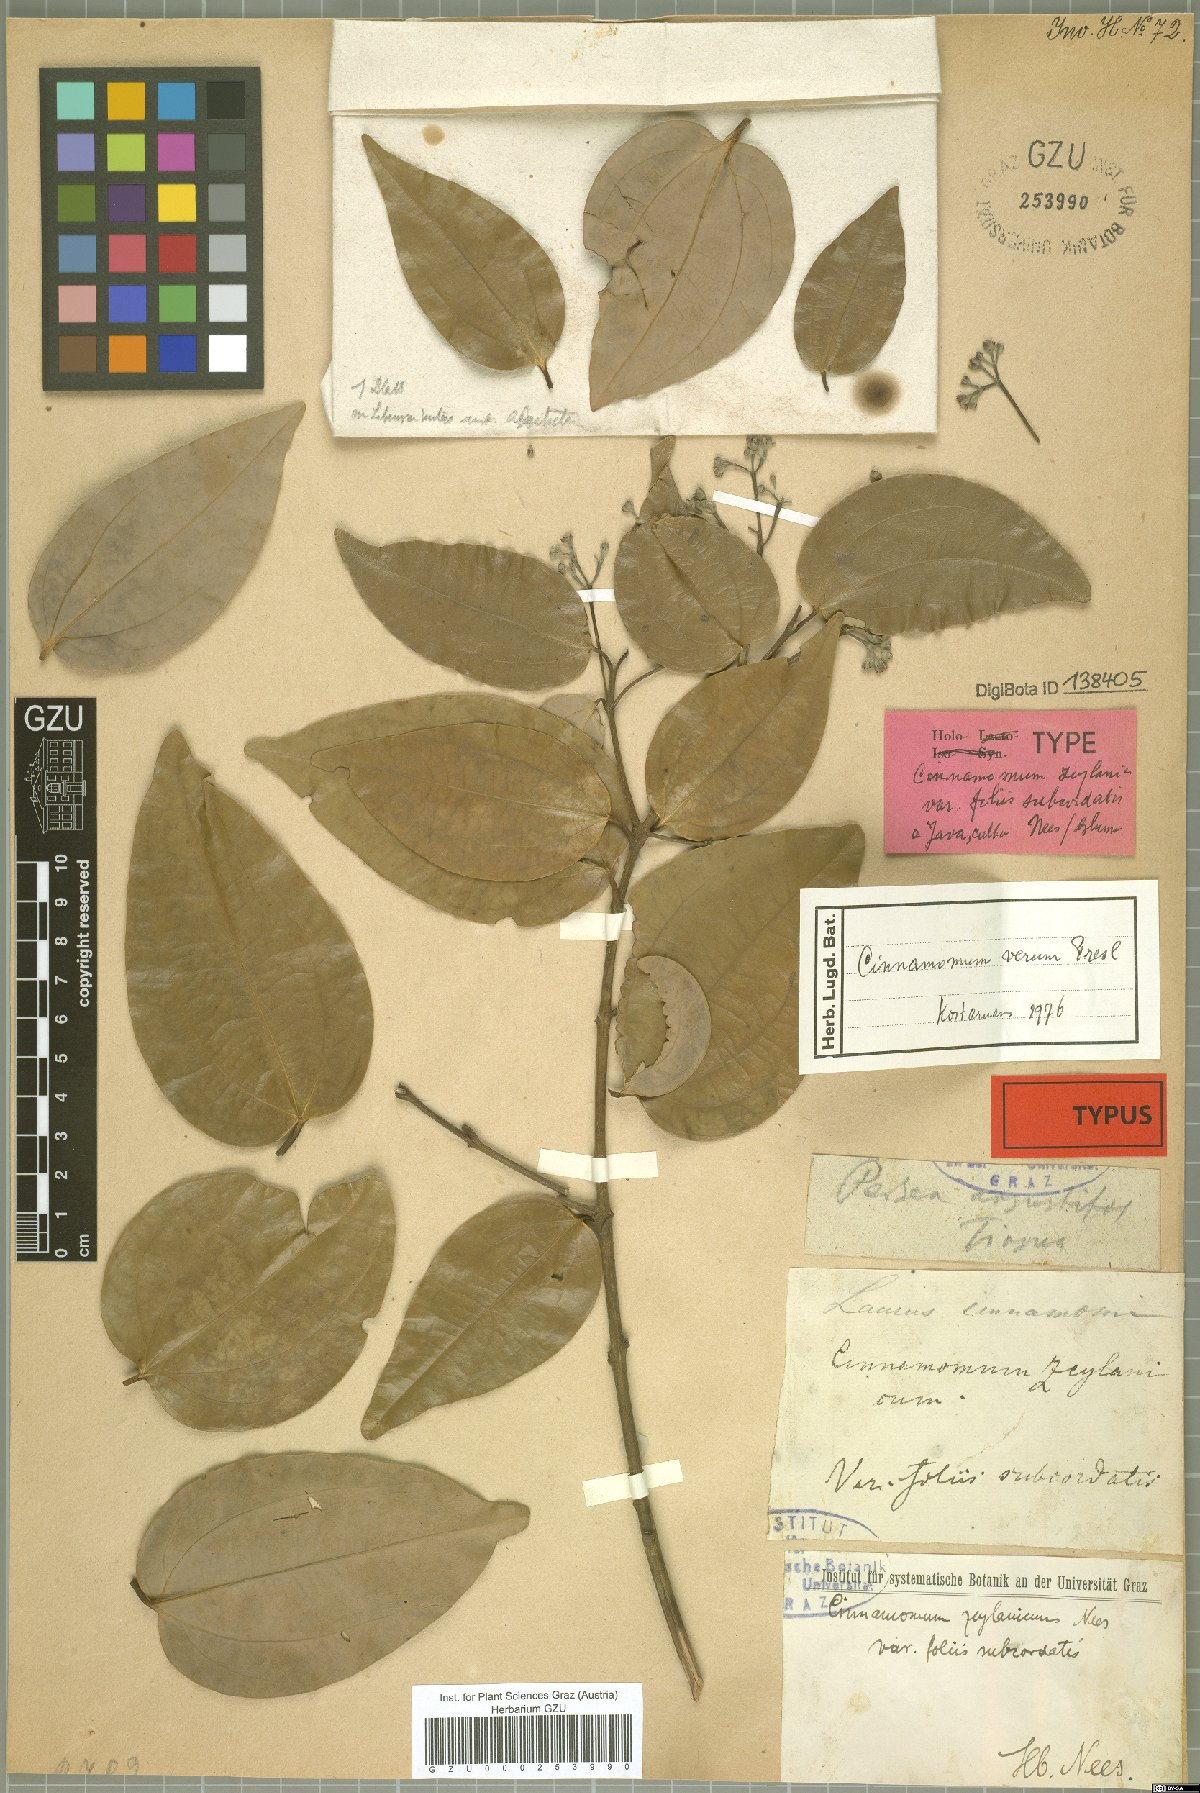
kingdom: Plantae
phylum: Tracheophyta
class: Magnoliopsida
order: Laurales
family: Lauraceae
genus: Cinnamomum
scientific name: Cinnamomum verum
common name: Cinnamon
